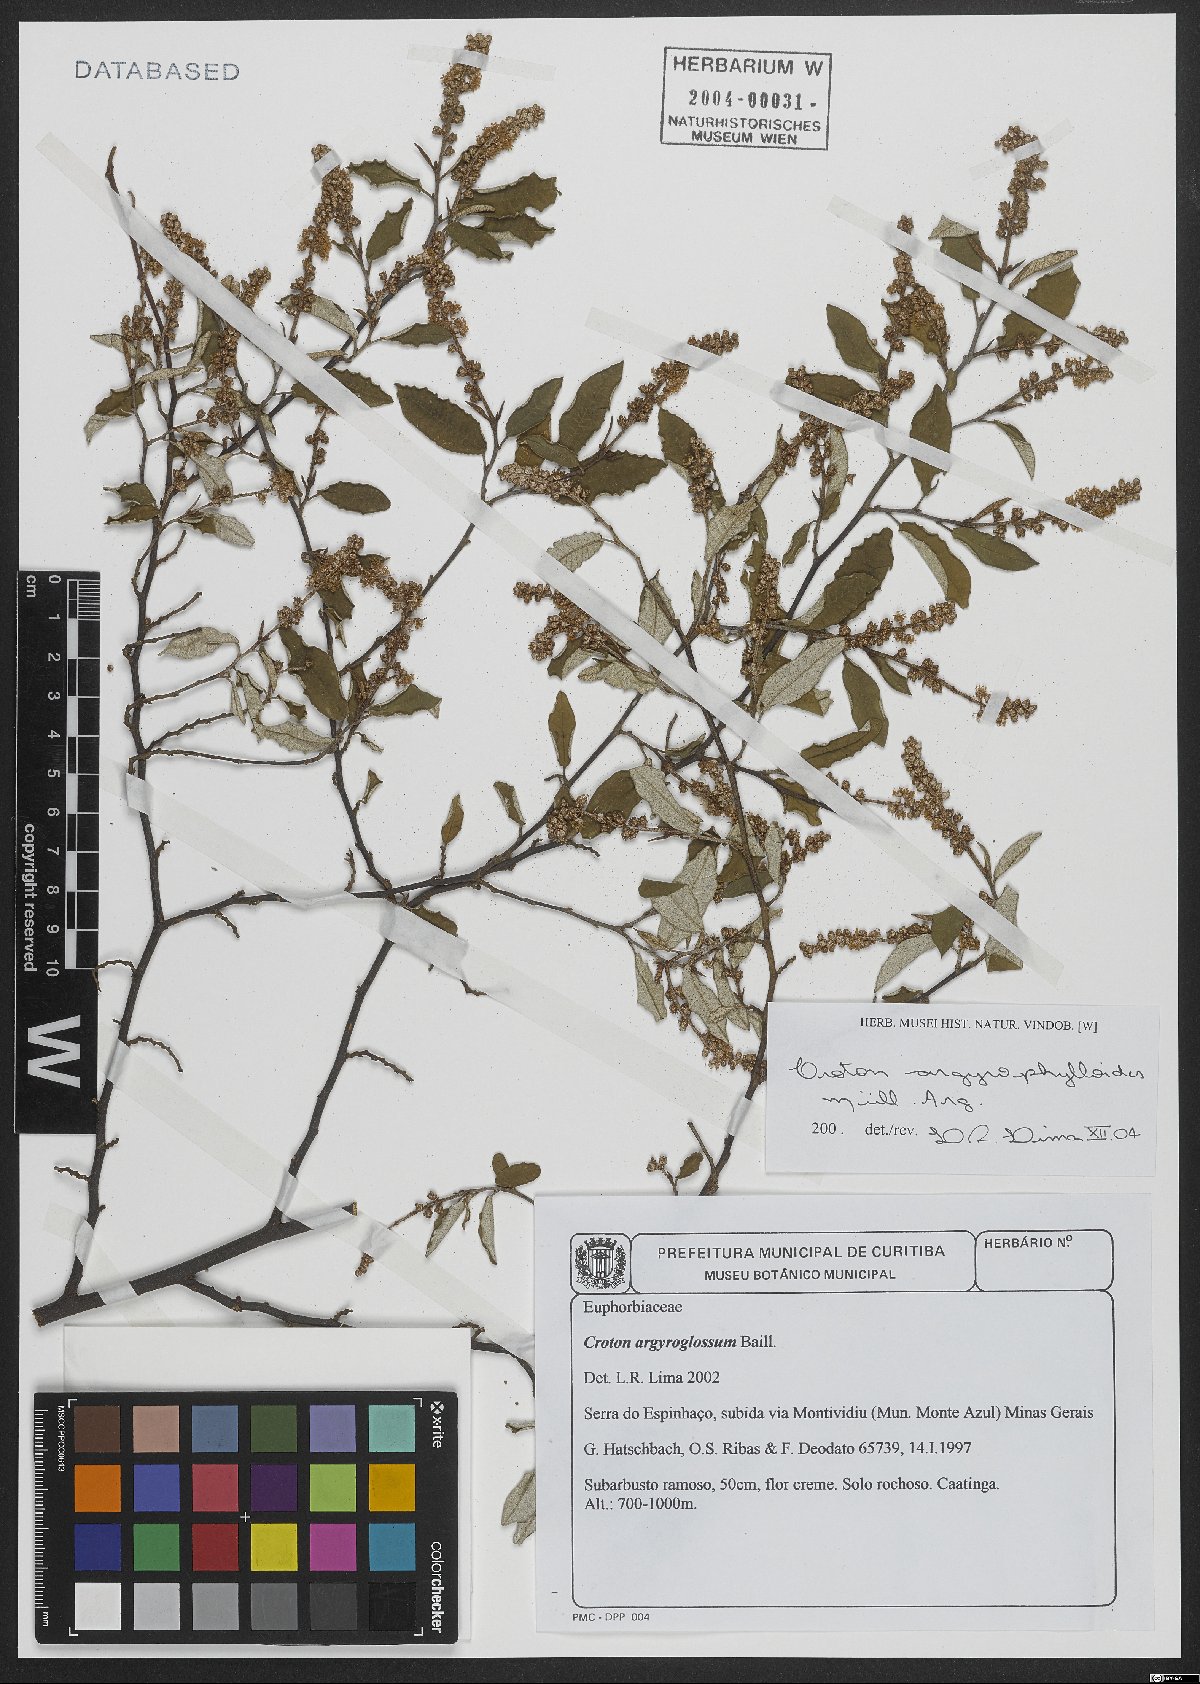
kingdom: Plantae
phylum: Tracheophyta
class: Magnoliopsida
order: Malpighiales
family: Euphorbiaceae
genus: Croton
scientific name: Croton tricolor
